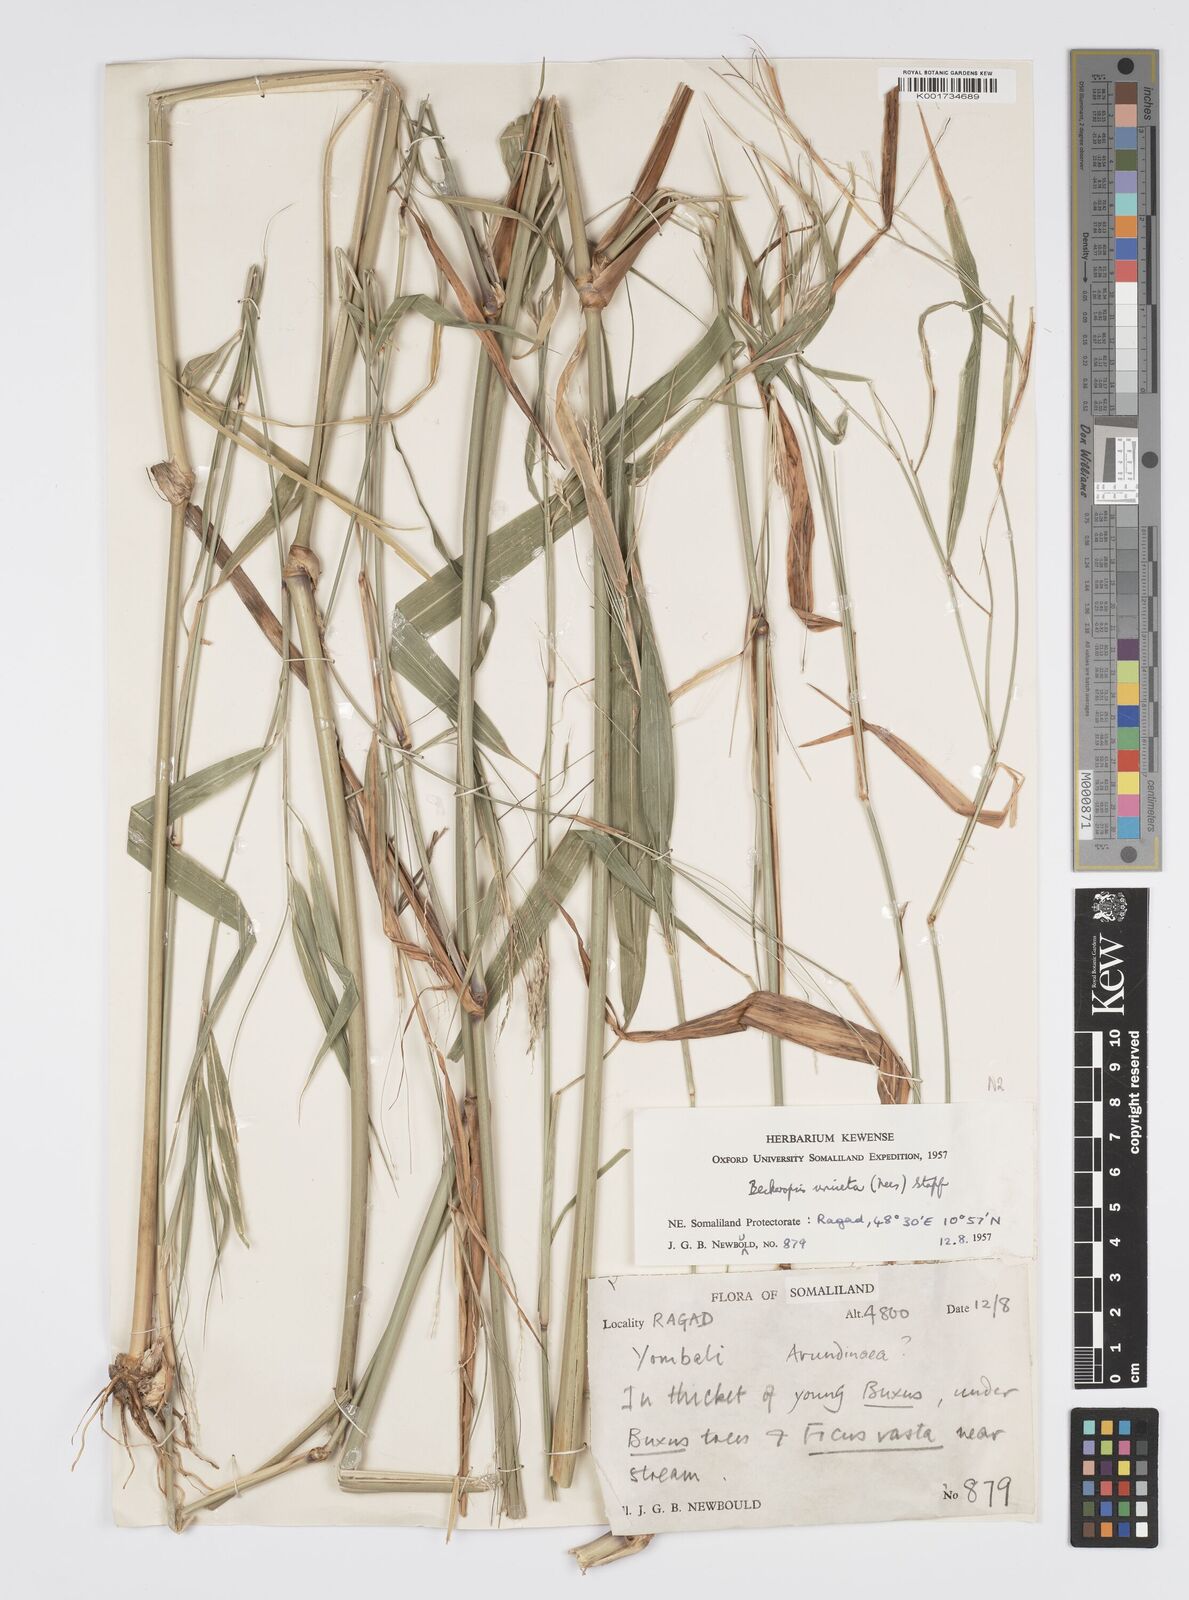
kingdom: Plantae
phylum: Tracheophyta
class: Liliopsida
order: Poales
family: Poaceae
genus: Cenchrus
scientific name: Cenchrus unisetus
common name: Natal grass
